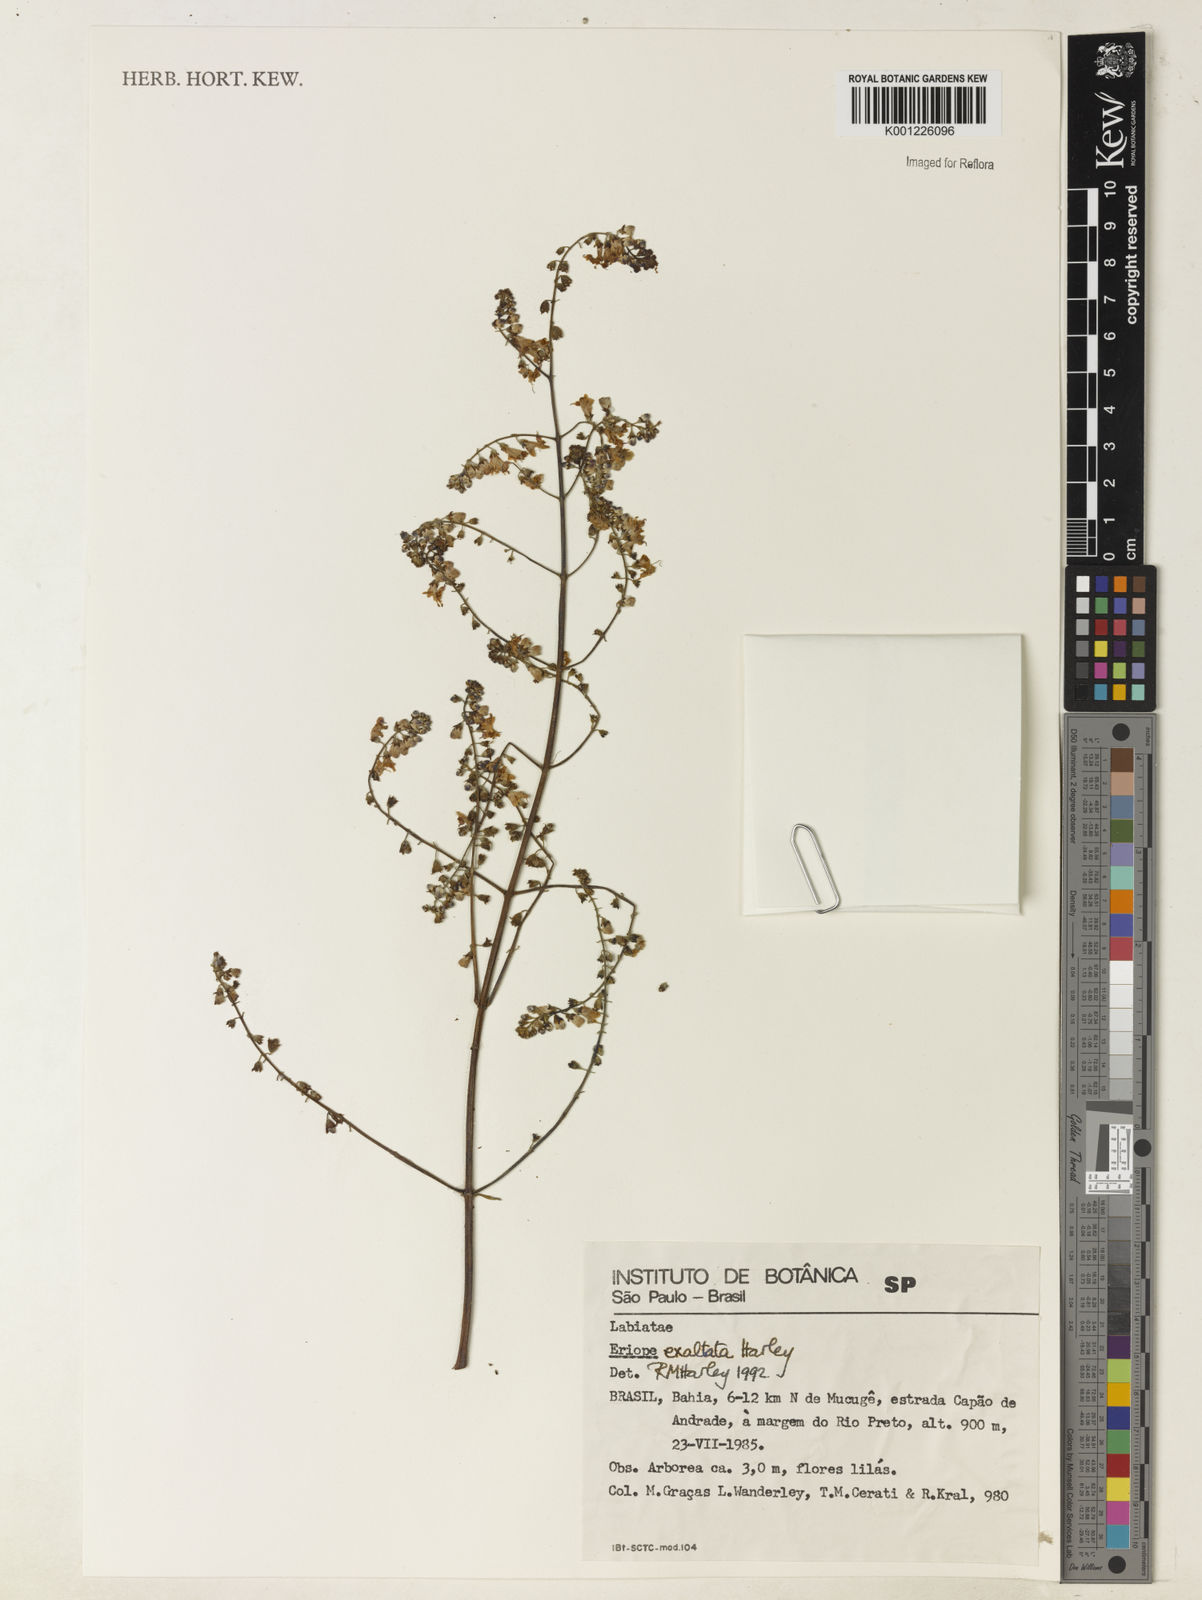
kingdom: Plantae
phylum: Tracheophyta
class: Magnoliopsida
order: Lamiales
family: Lamiaceae
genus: Eriope
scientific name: Eriope exaltata
